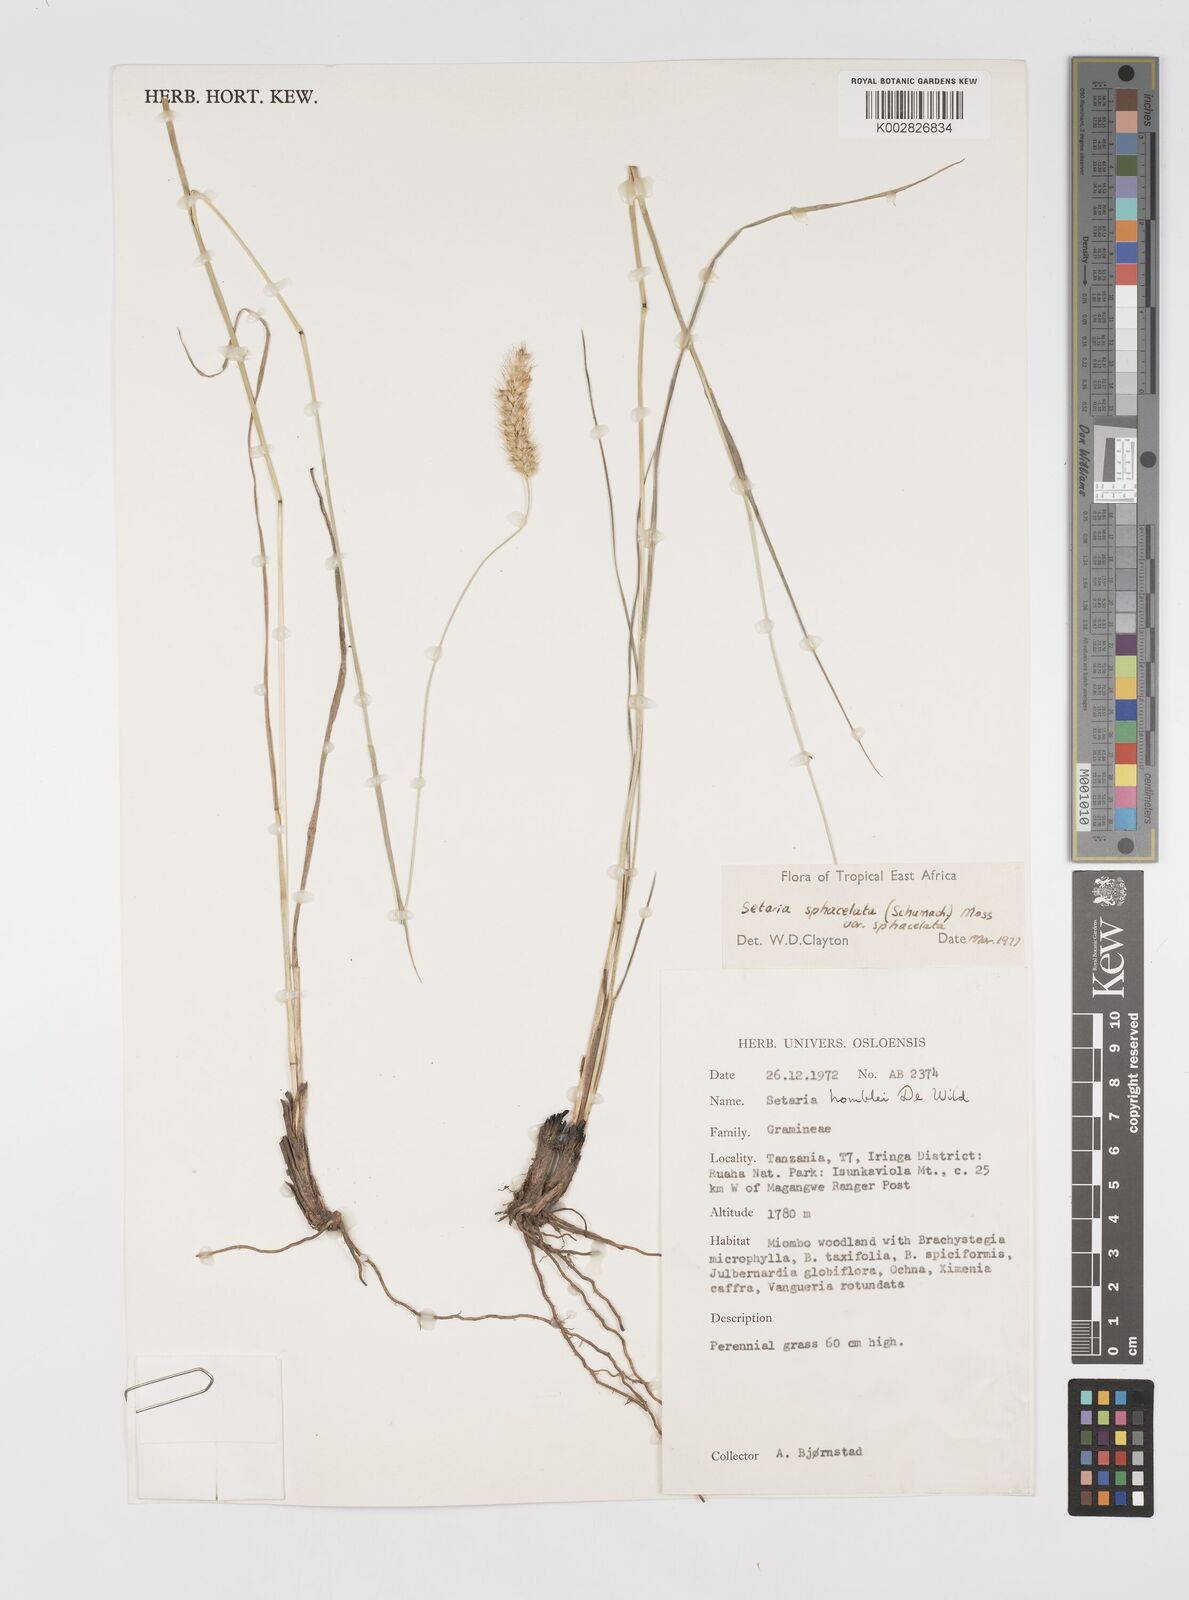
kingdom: Plantae
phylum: Tracheophyta
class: Liliopsida
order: Poales
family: Poaceae
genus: Setaria
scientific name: Setaria sphacelata
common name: African bristlegrass
